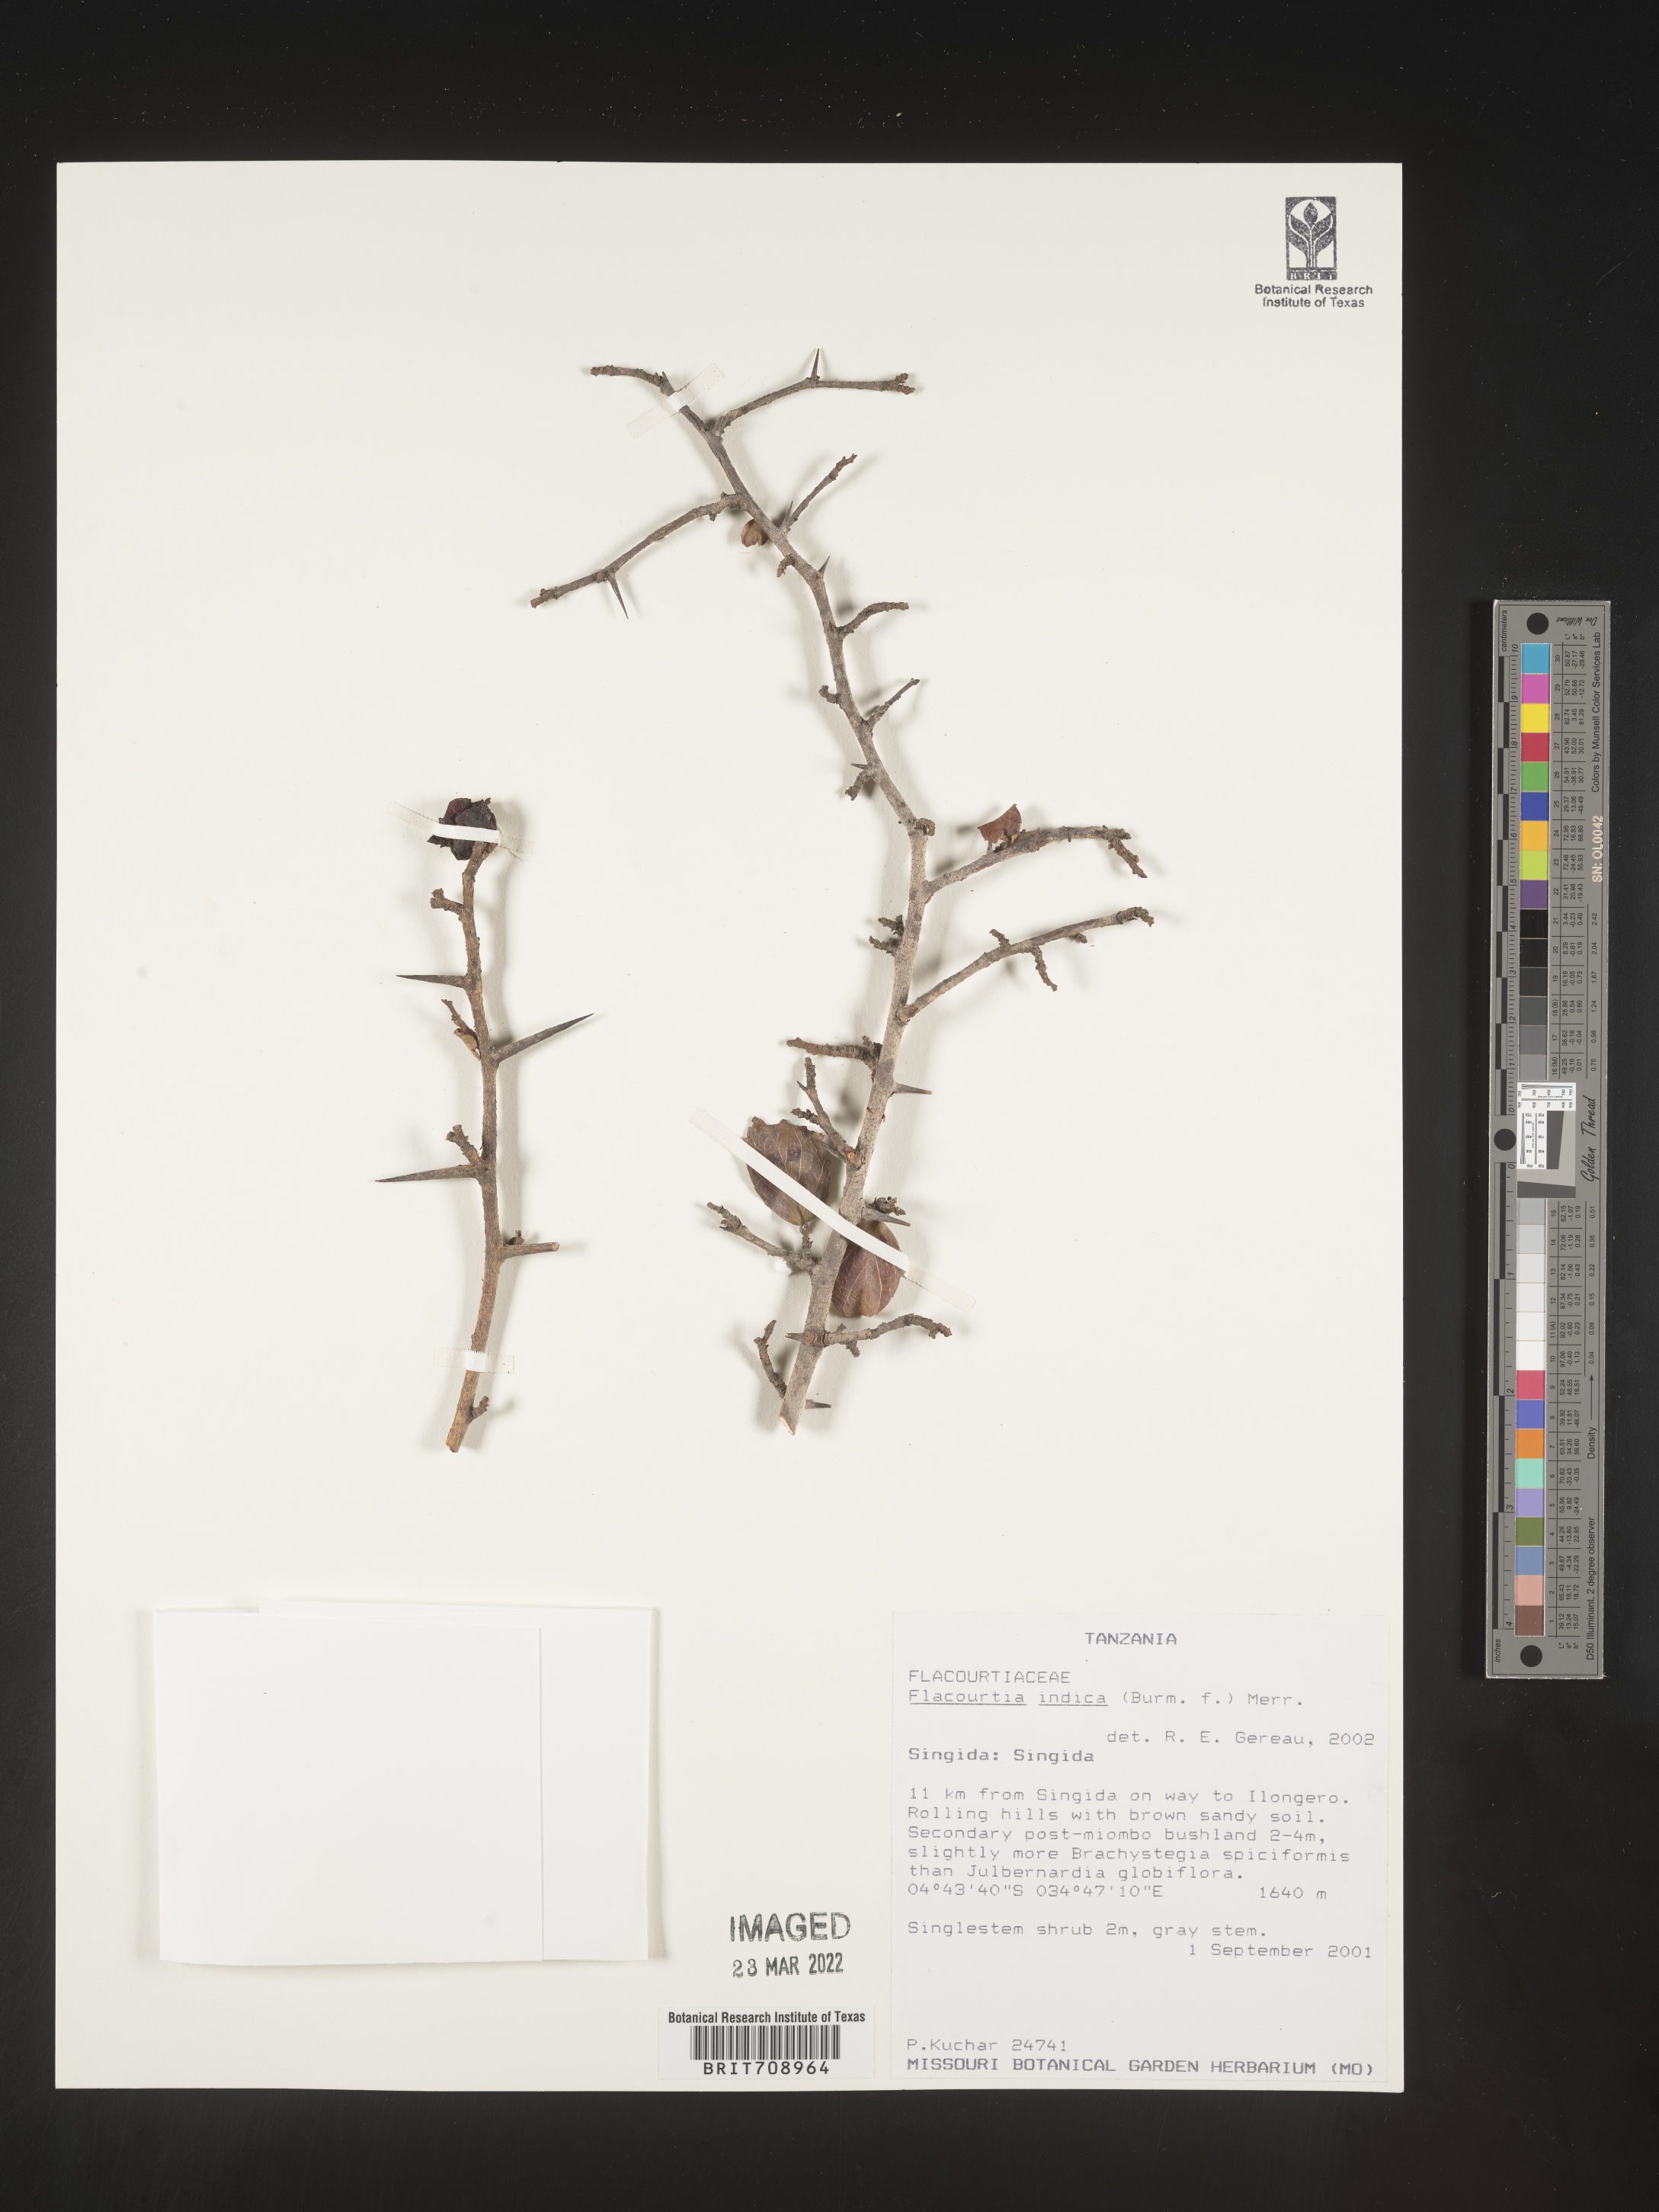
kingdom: Plantae
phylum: Tracheophyta
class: Magnoliopsida
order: Malpighiales
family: Salicaceae
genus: Flacourtia
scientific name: Flacourtia
